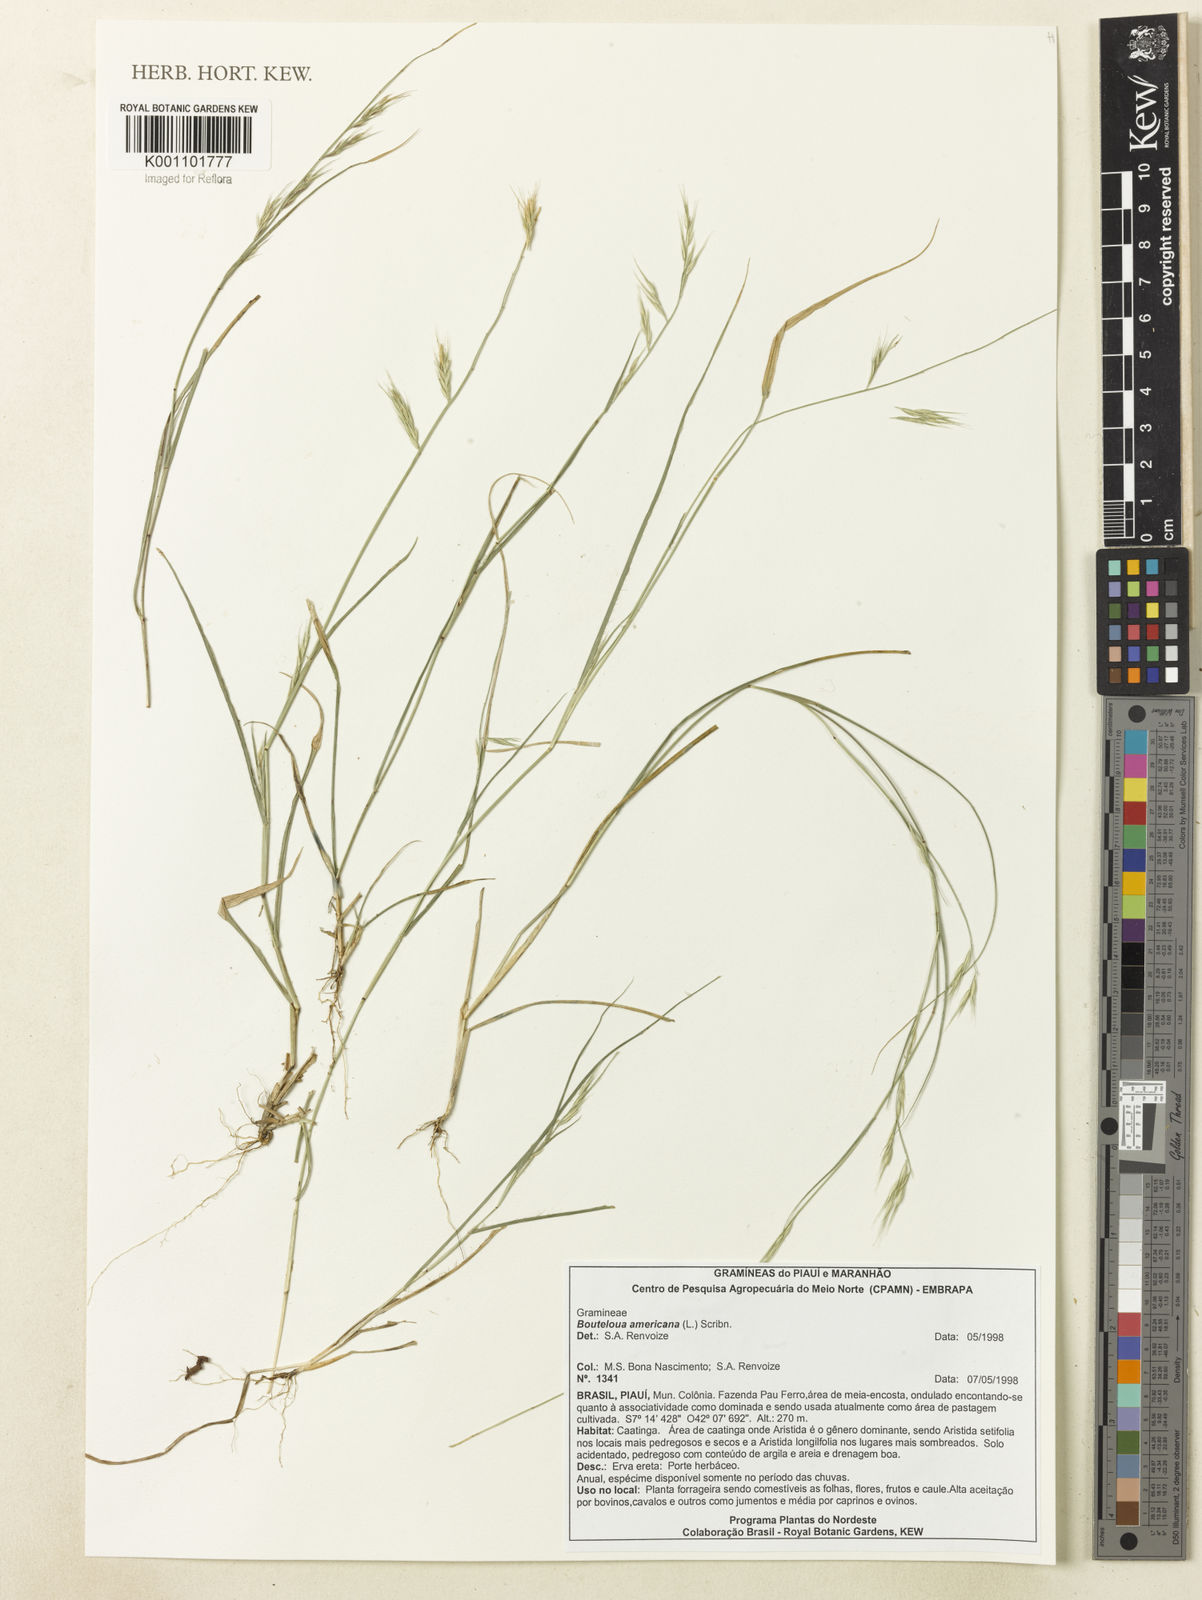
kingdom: Plantae
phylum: Tracheophyta
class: Liliopsida
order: Poales
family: Poaceae
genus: Bouteloua
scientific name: Bouteloua americana
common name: Mule grass
